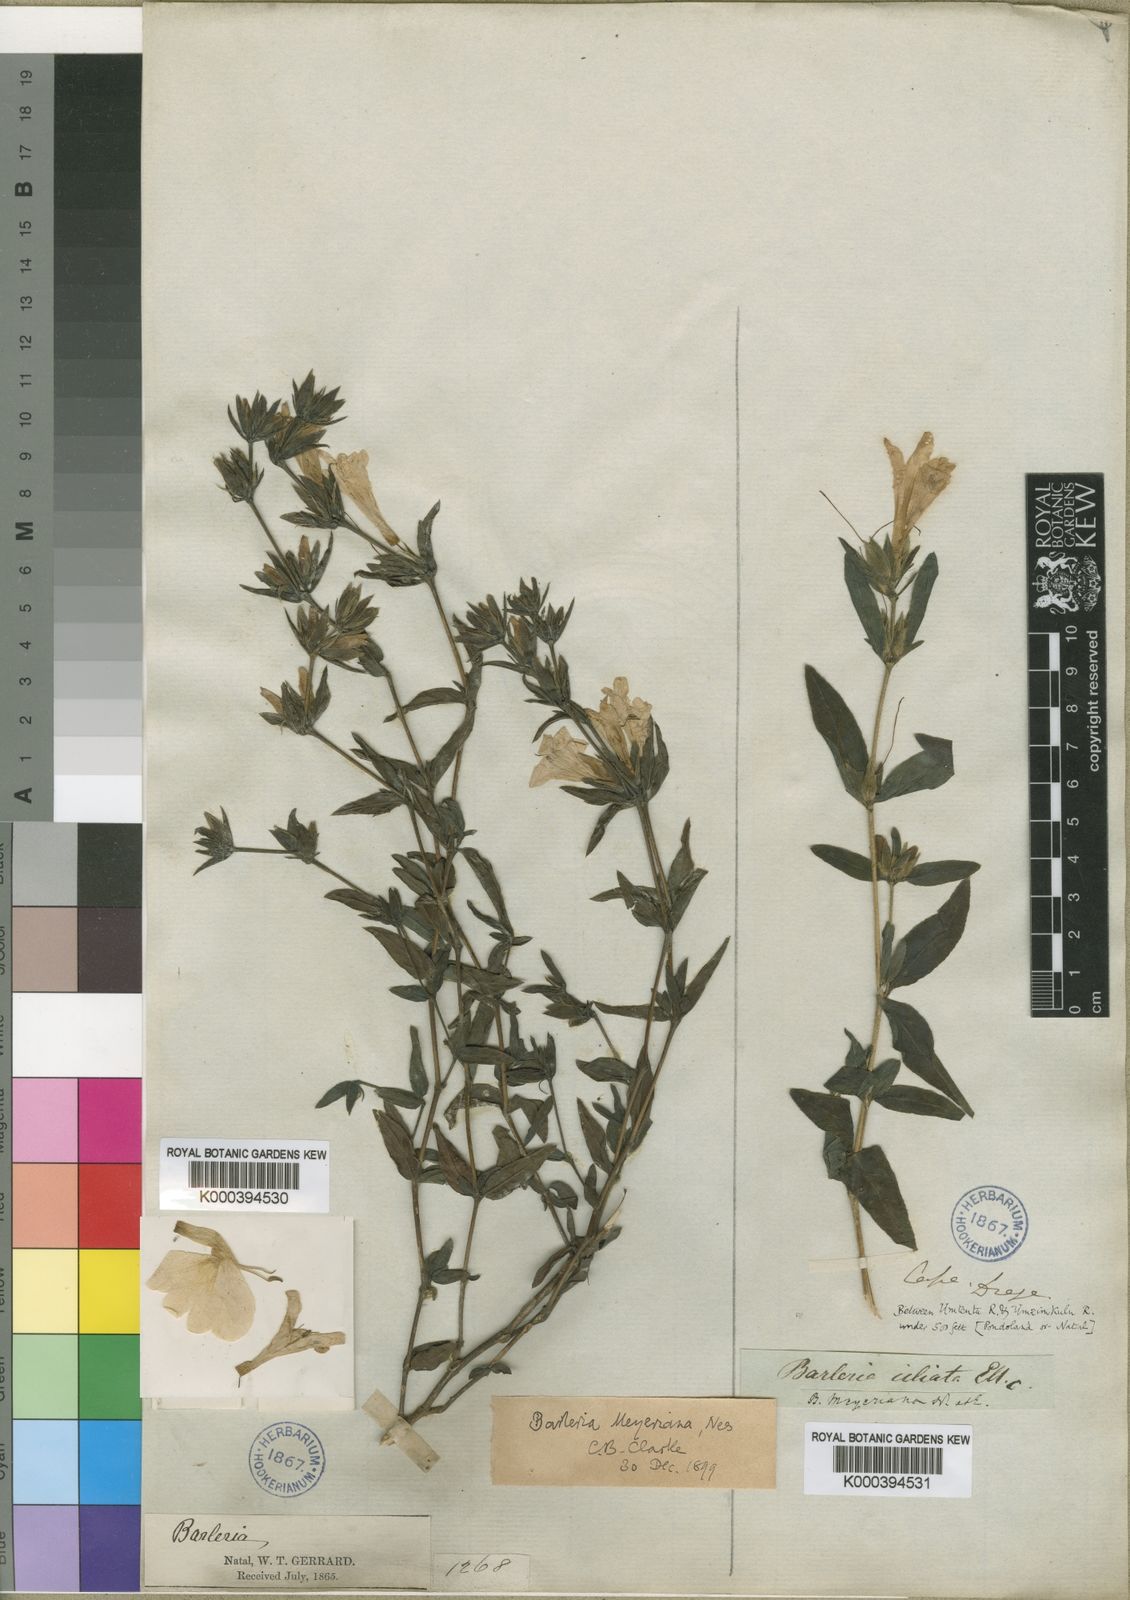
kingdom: Plantae
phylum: Tracheophyta
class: Magnoliopsida
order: Lamiales
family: Acanthaceae
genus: Barleria
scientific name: Barleria meyeriana
